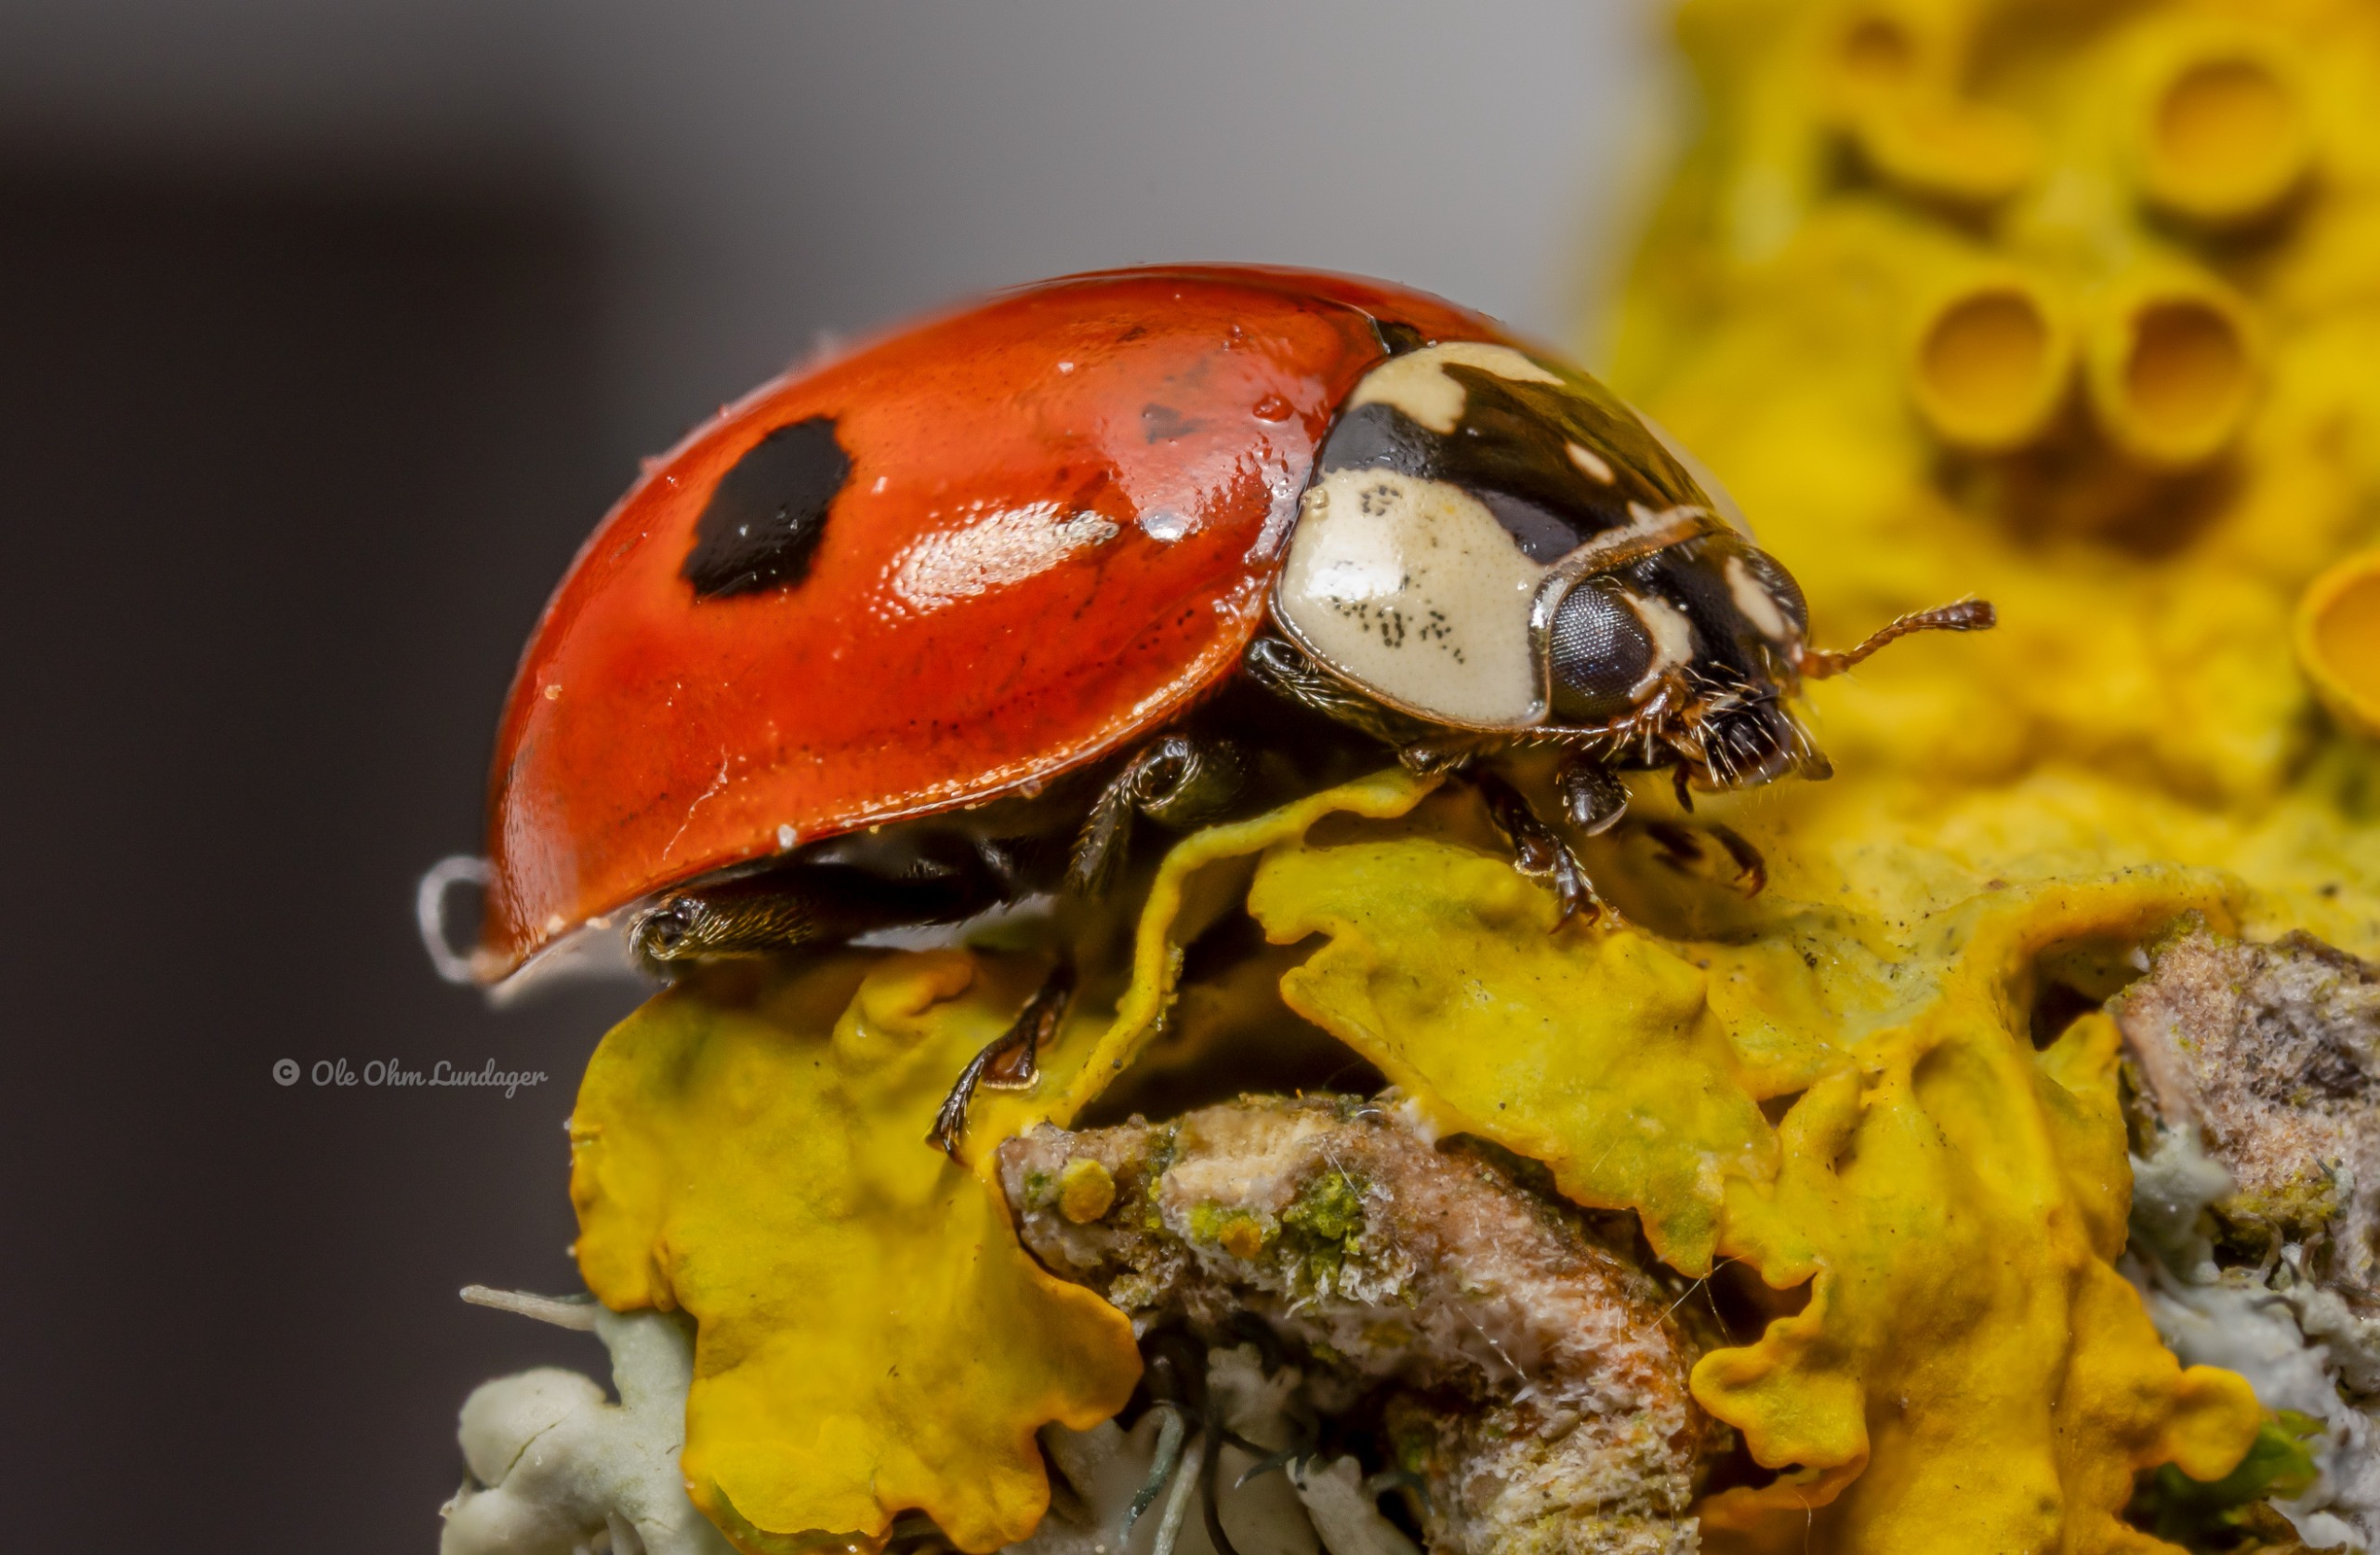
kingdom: Animalia
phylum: Arthropoda
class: Insecta
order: Coleoptera
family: Coccinellidae
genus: Adalia
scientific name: Adalia bipunctata
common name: Toplettet mariehøne
